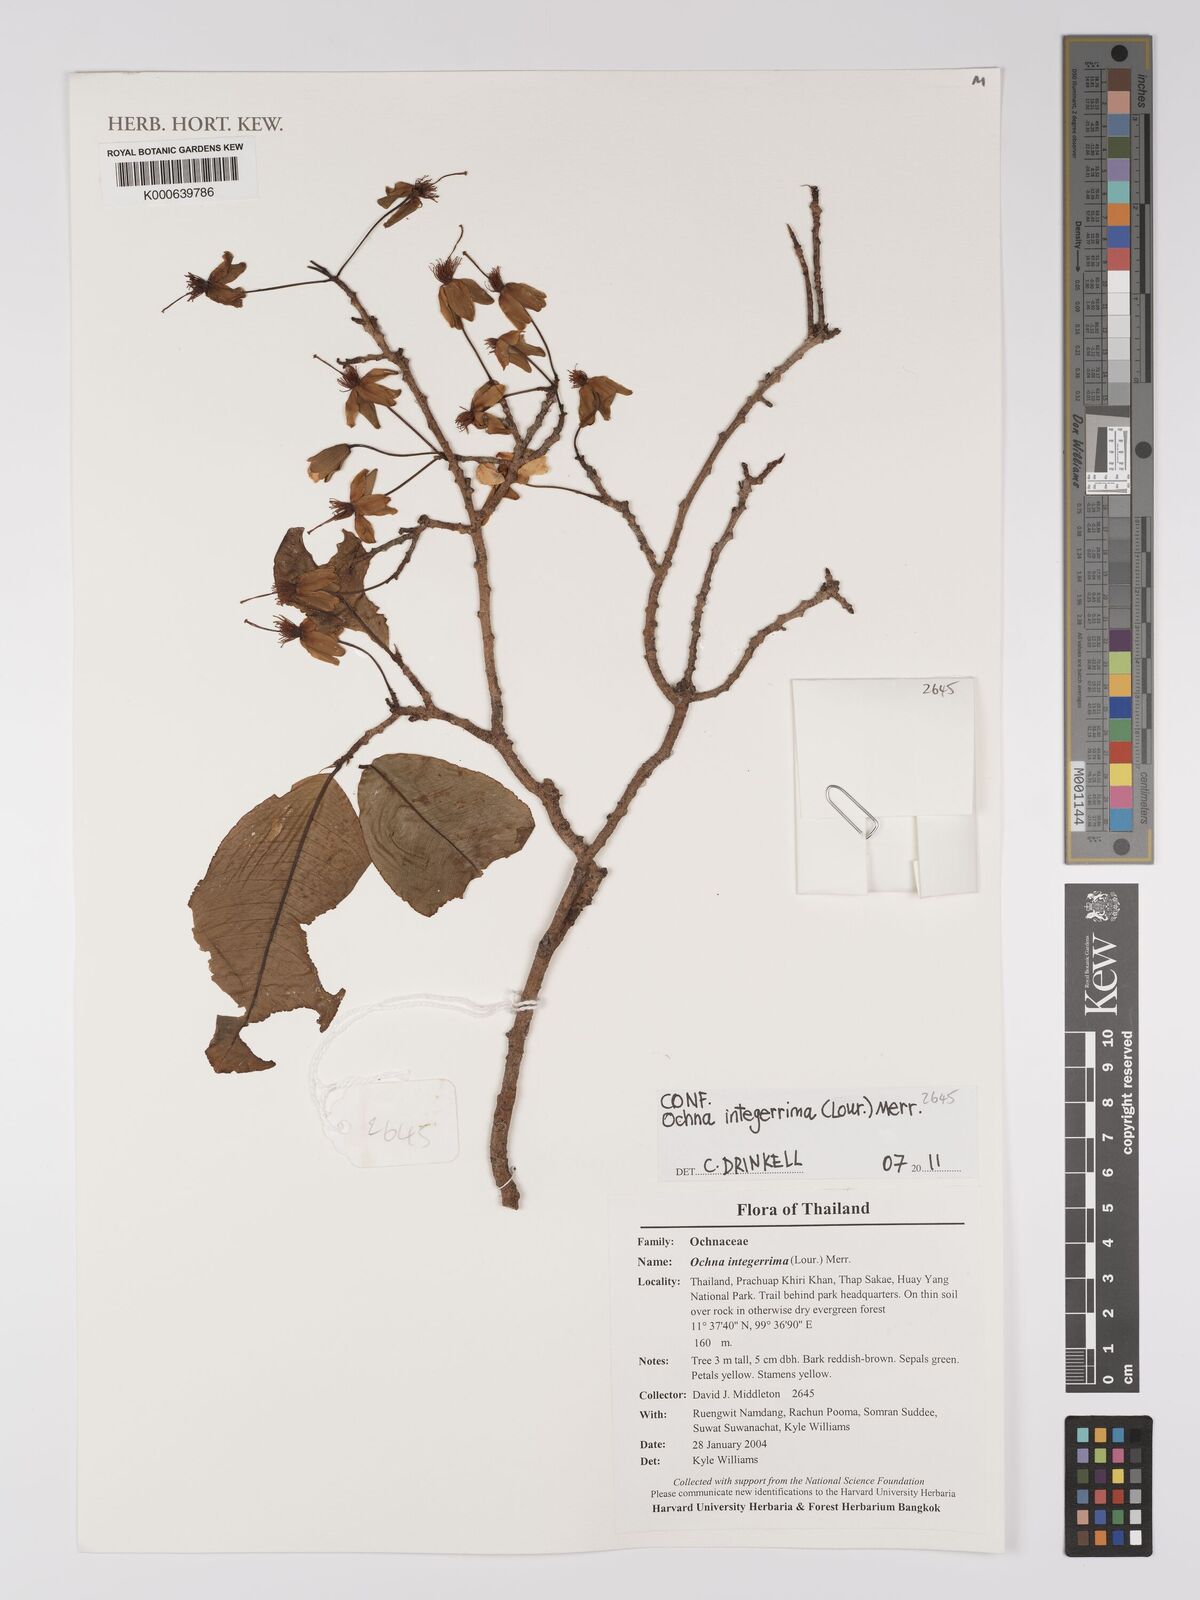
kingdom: Plantae
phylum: Tracheophyta
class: Magnoliopsida
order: Malpighiales
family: Ochnaceae
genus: Ochna
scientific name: Ochna integerrima
